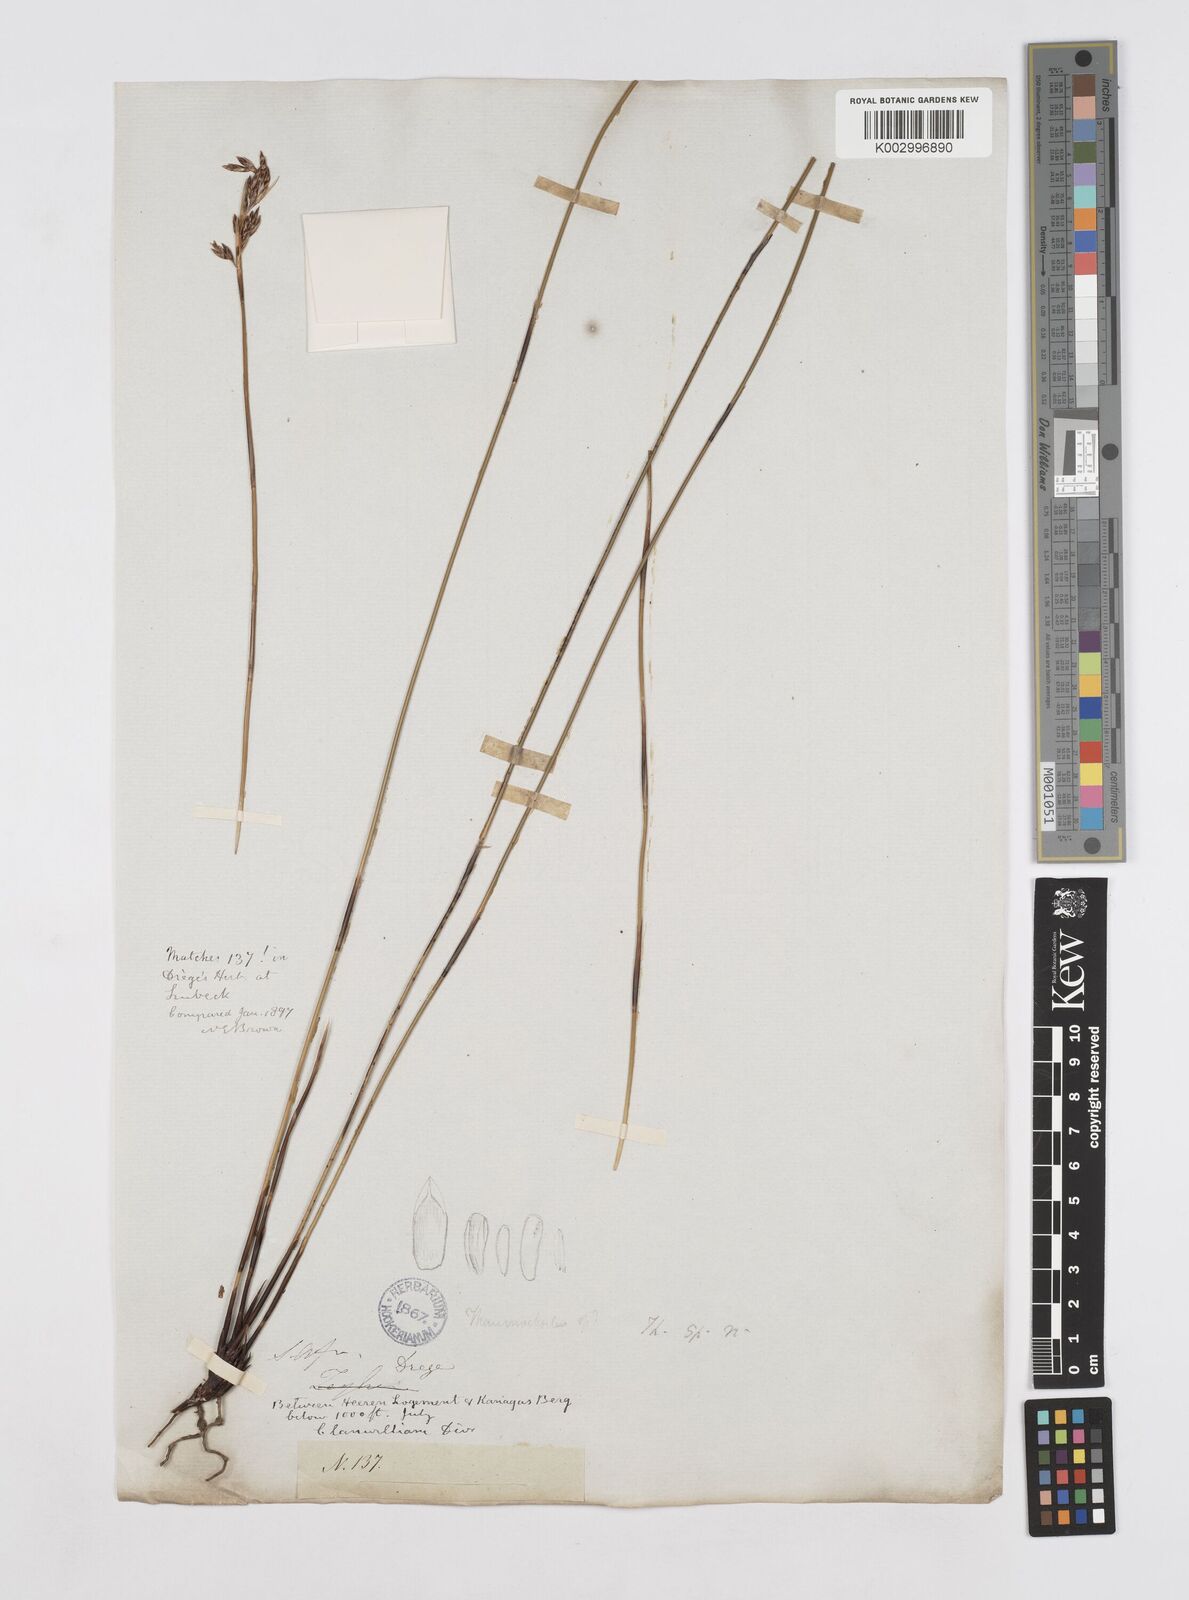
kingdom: Plantae
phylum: Tracheophyta
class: Liliopsida
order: Poales
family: Restionaceae
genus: Thamnochortus
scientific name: Thamnochortus lucens
